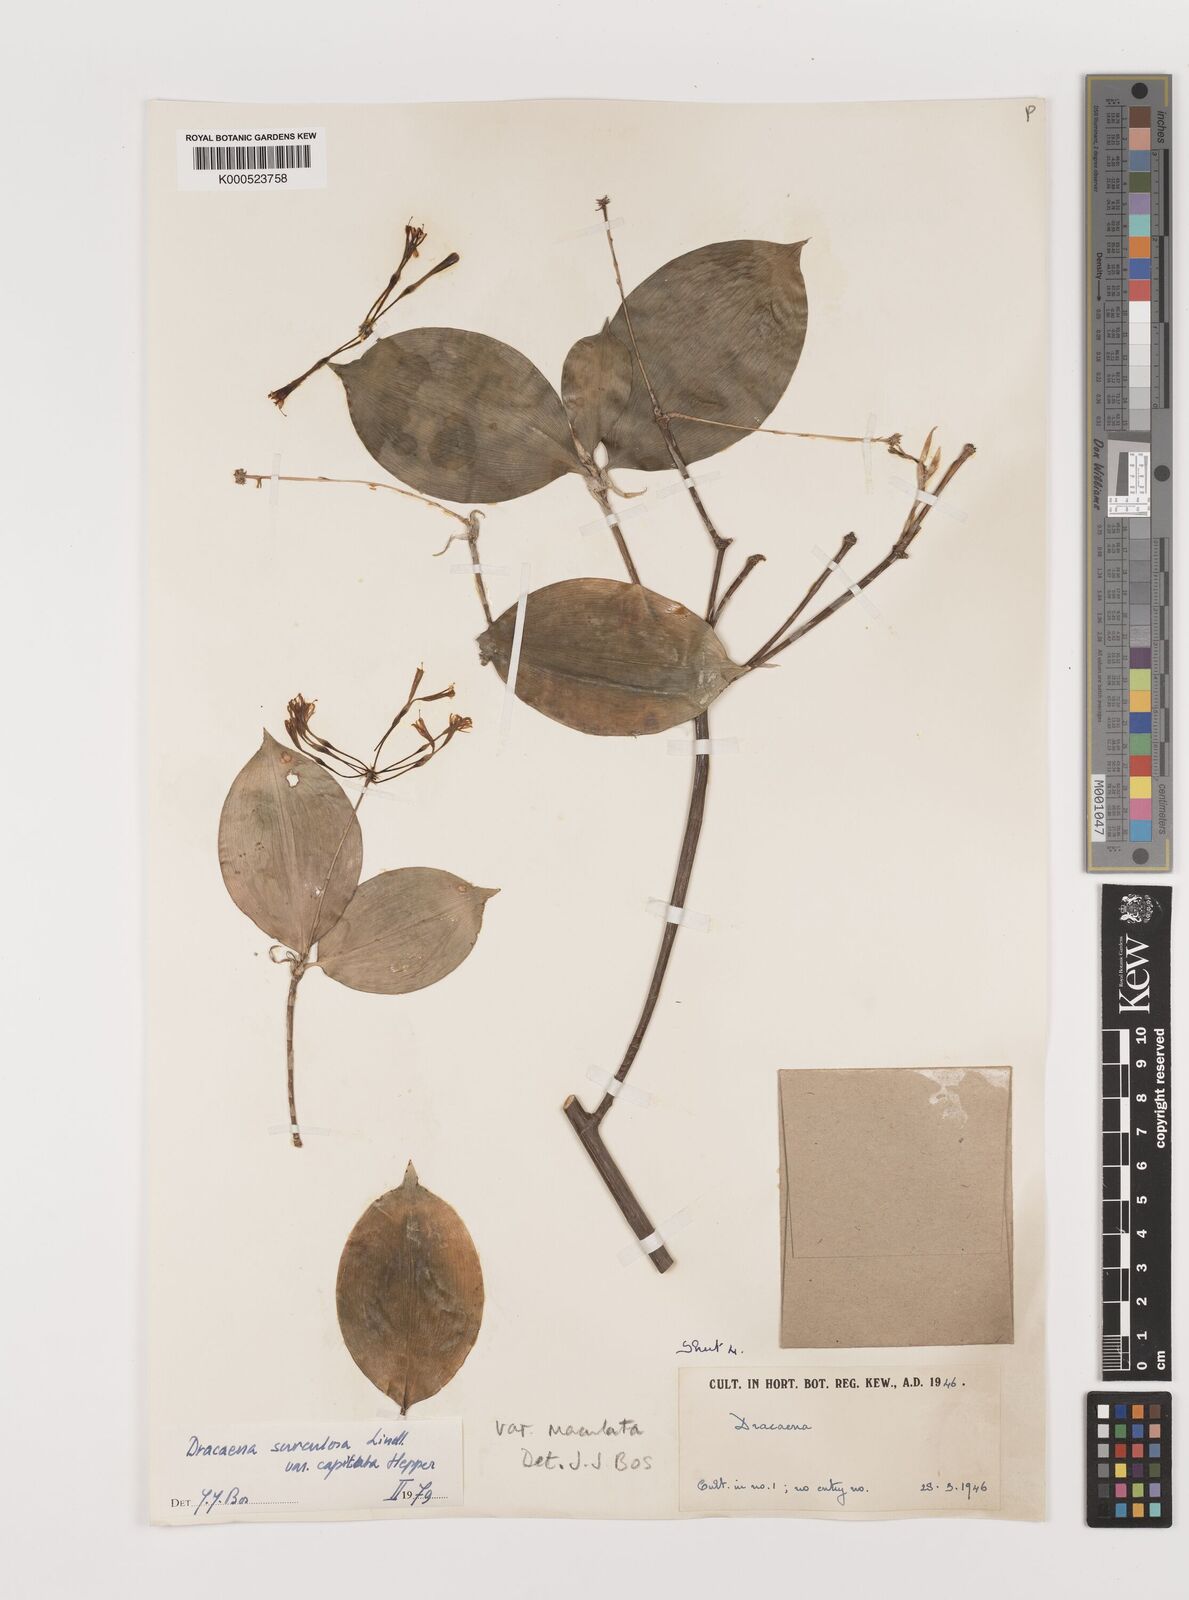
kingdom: Plantae
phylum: Tracheophyta
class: Liliopsida
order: Asparagales
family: Asparagaceae
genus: Dracaena
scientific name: Dracaena surculosa
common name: Spotted dracaena
